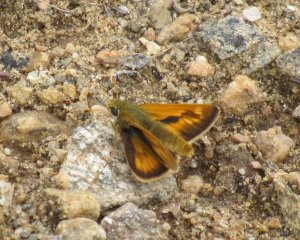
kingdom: Animalia
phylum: Arthropoda
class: Insecta
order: Lepidoptera
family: Hesperiidae
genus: Hesperia
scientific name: Hesperia sassacus
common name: Sassacus Skipper
